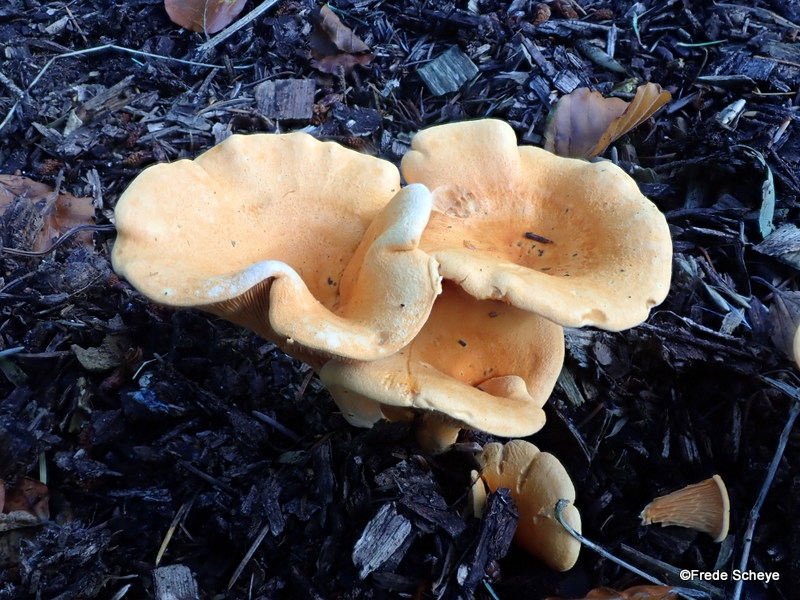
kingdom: Fungi
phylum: Basidiomycota
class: Agaricomycetes
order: Boletales
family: Hygrophoropsidaceae
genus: Hygrophoropsis
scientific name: Hygrophoropsis aurantiaca
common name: almindelig orangekantarel
